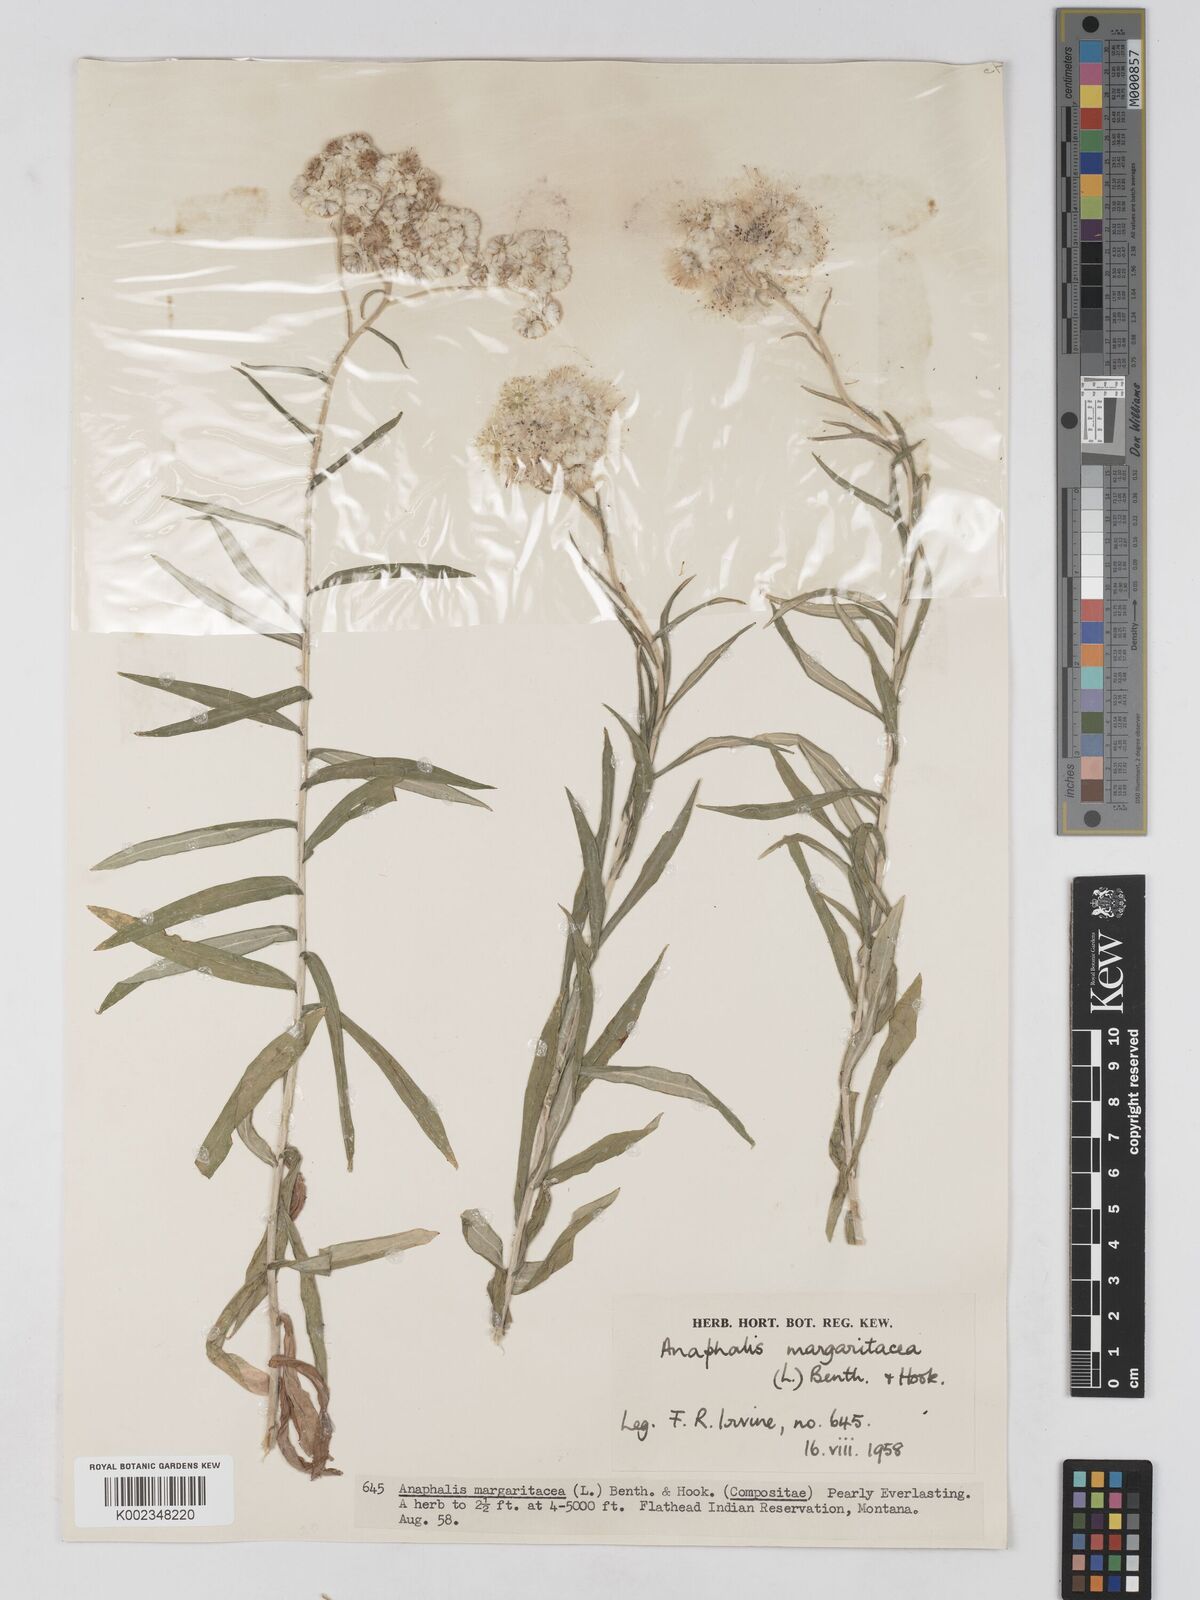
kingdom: Plantae
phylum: Tracheophyta
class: Magnoliopsida
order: Asterales
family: Asteraceae
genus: Anaphalis
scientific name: Anaphalis margaritacea
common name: Pearly everlasting
